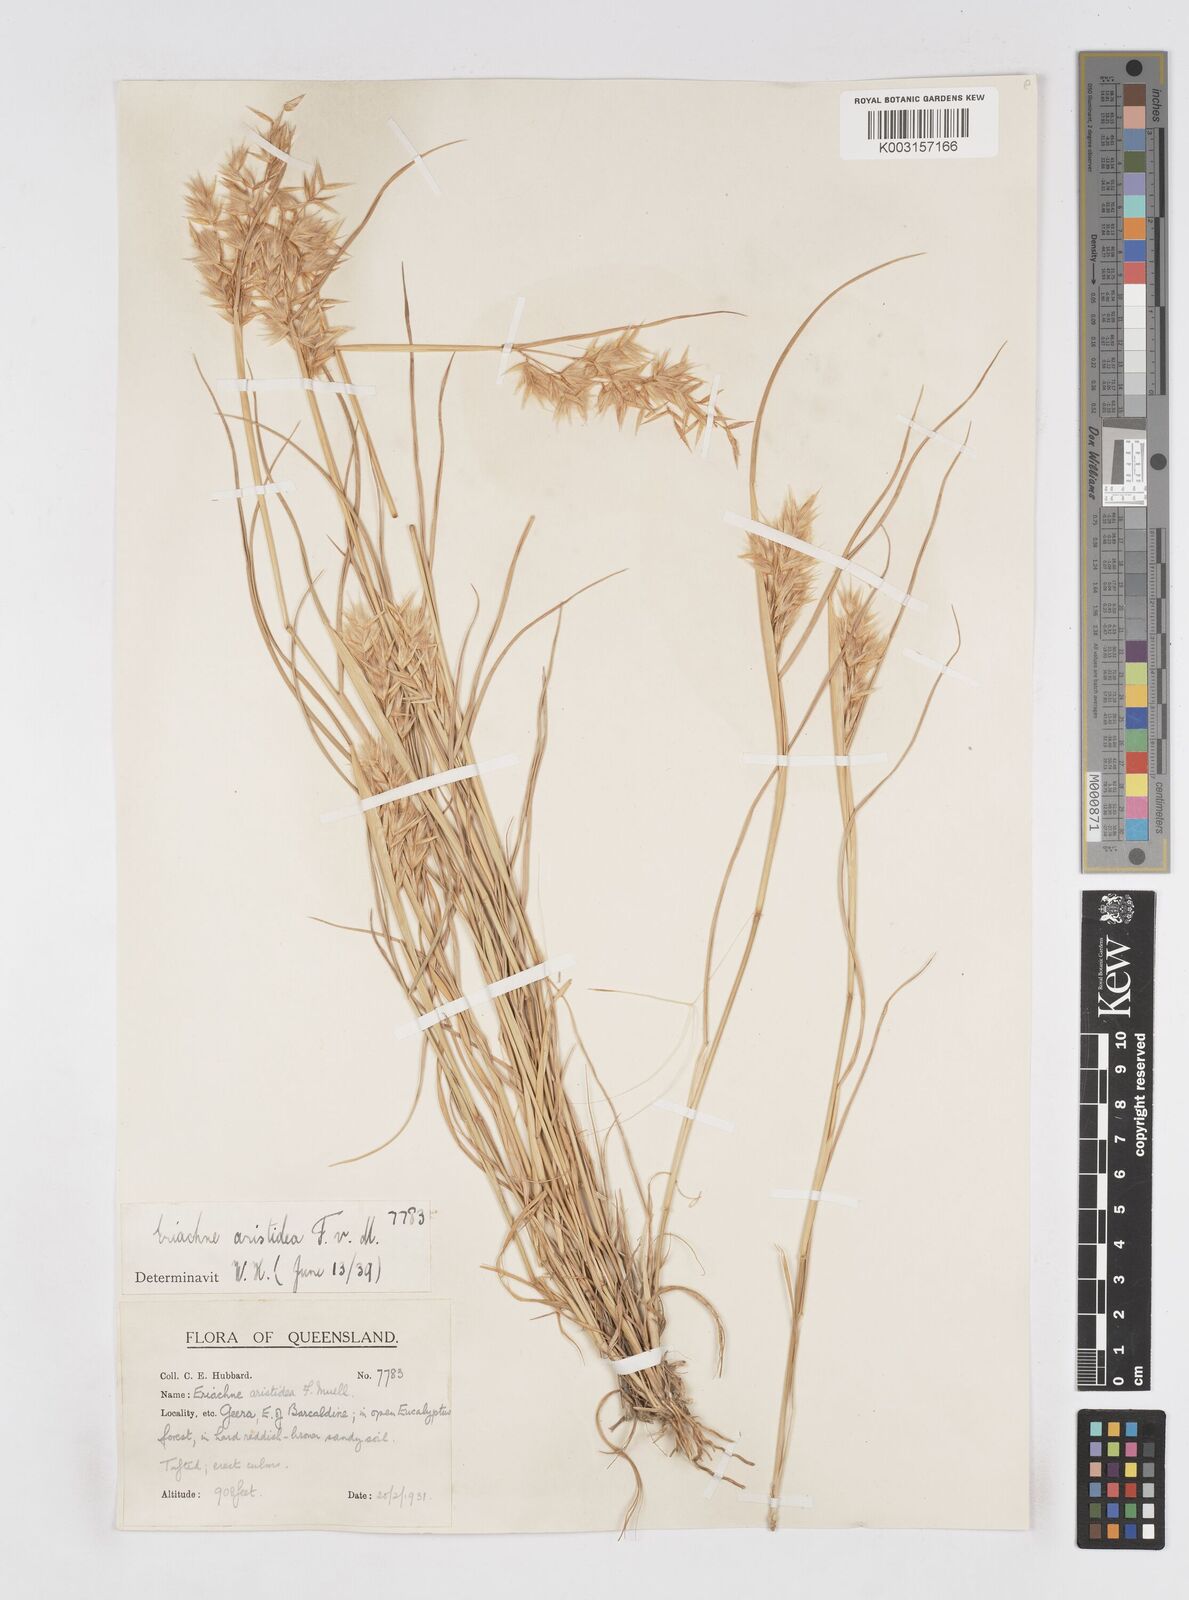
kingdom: Plantae
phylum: Tracheophyta
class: Liliopsida
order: Poales
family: Poaceae
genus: Eriachne
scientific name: Eriachne aristidea
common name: Three-awn wanderrie grass
